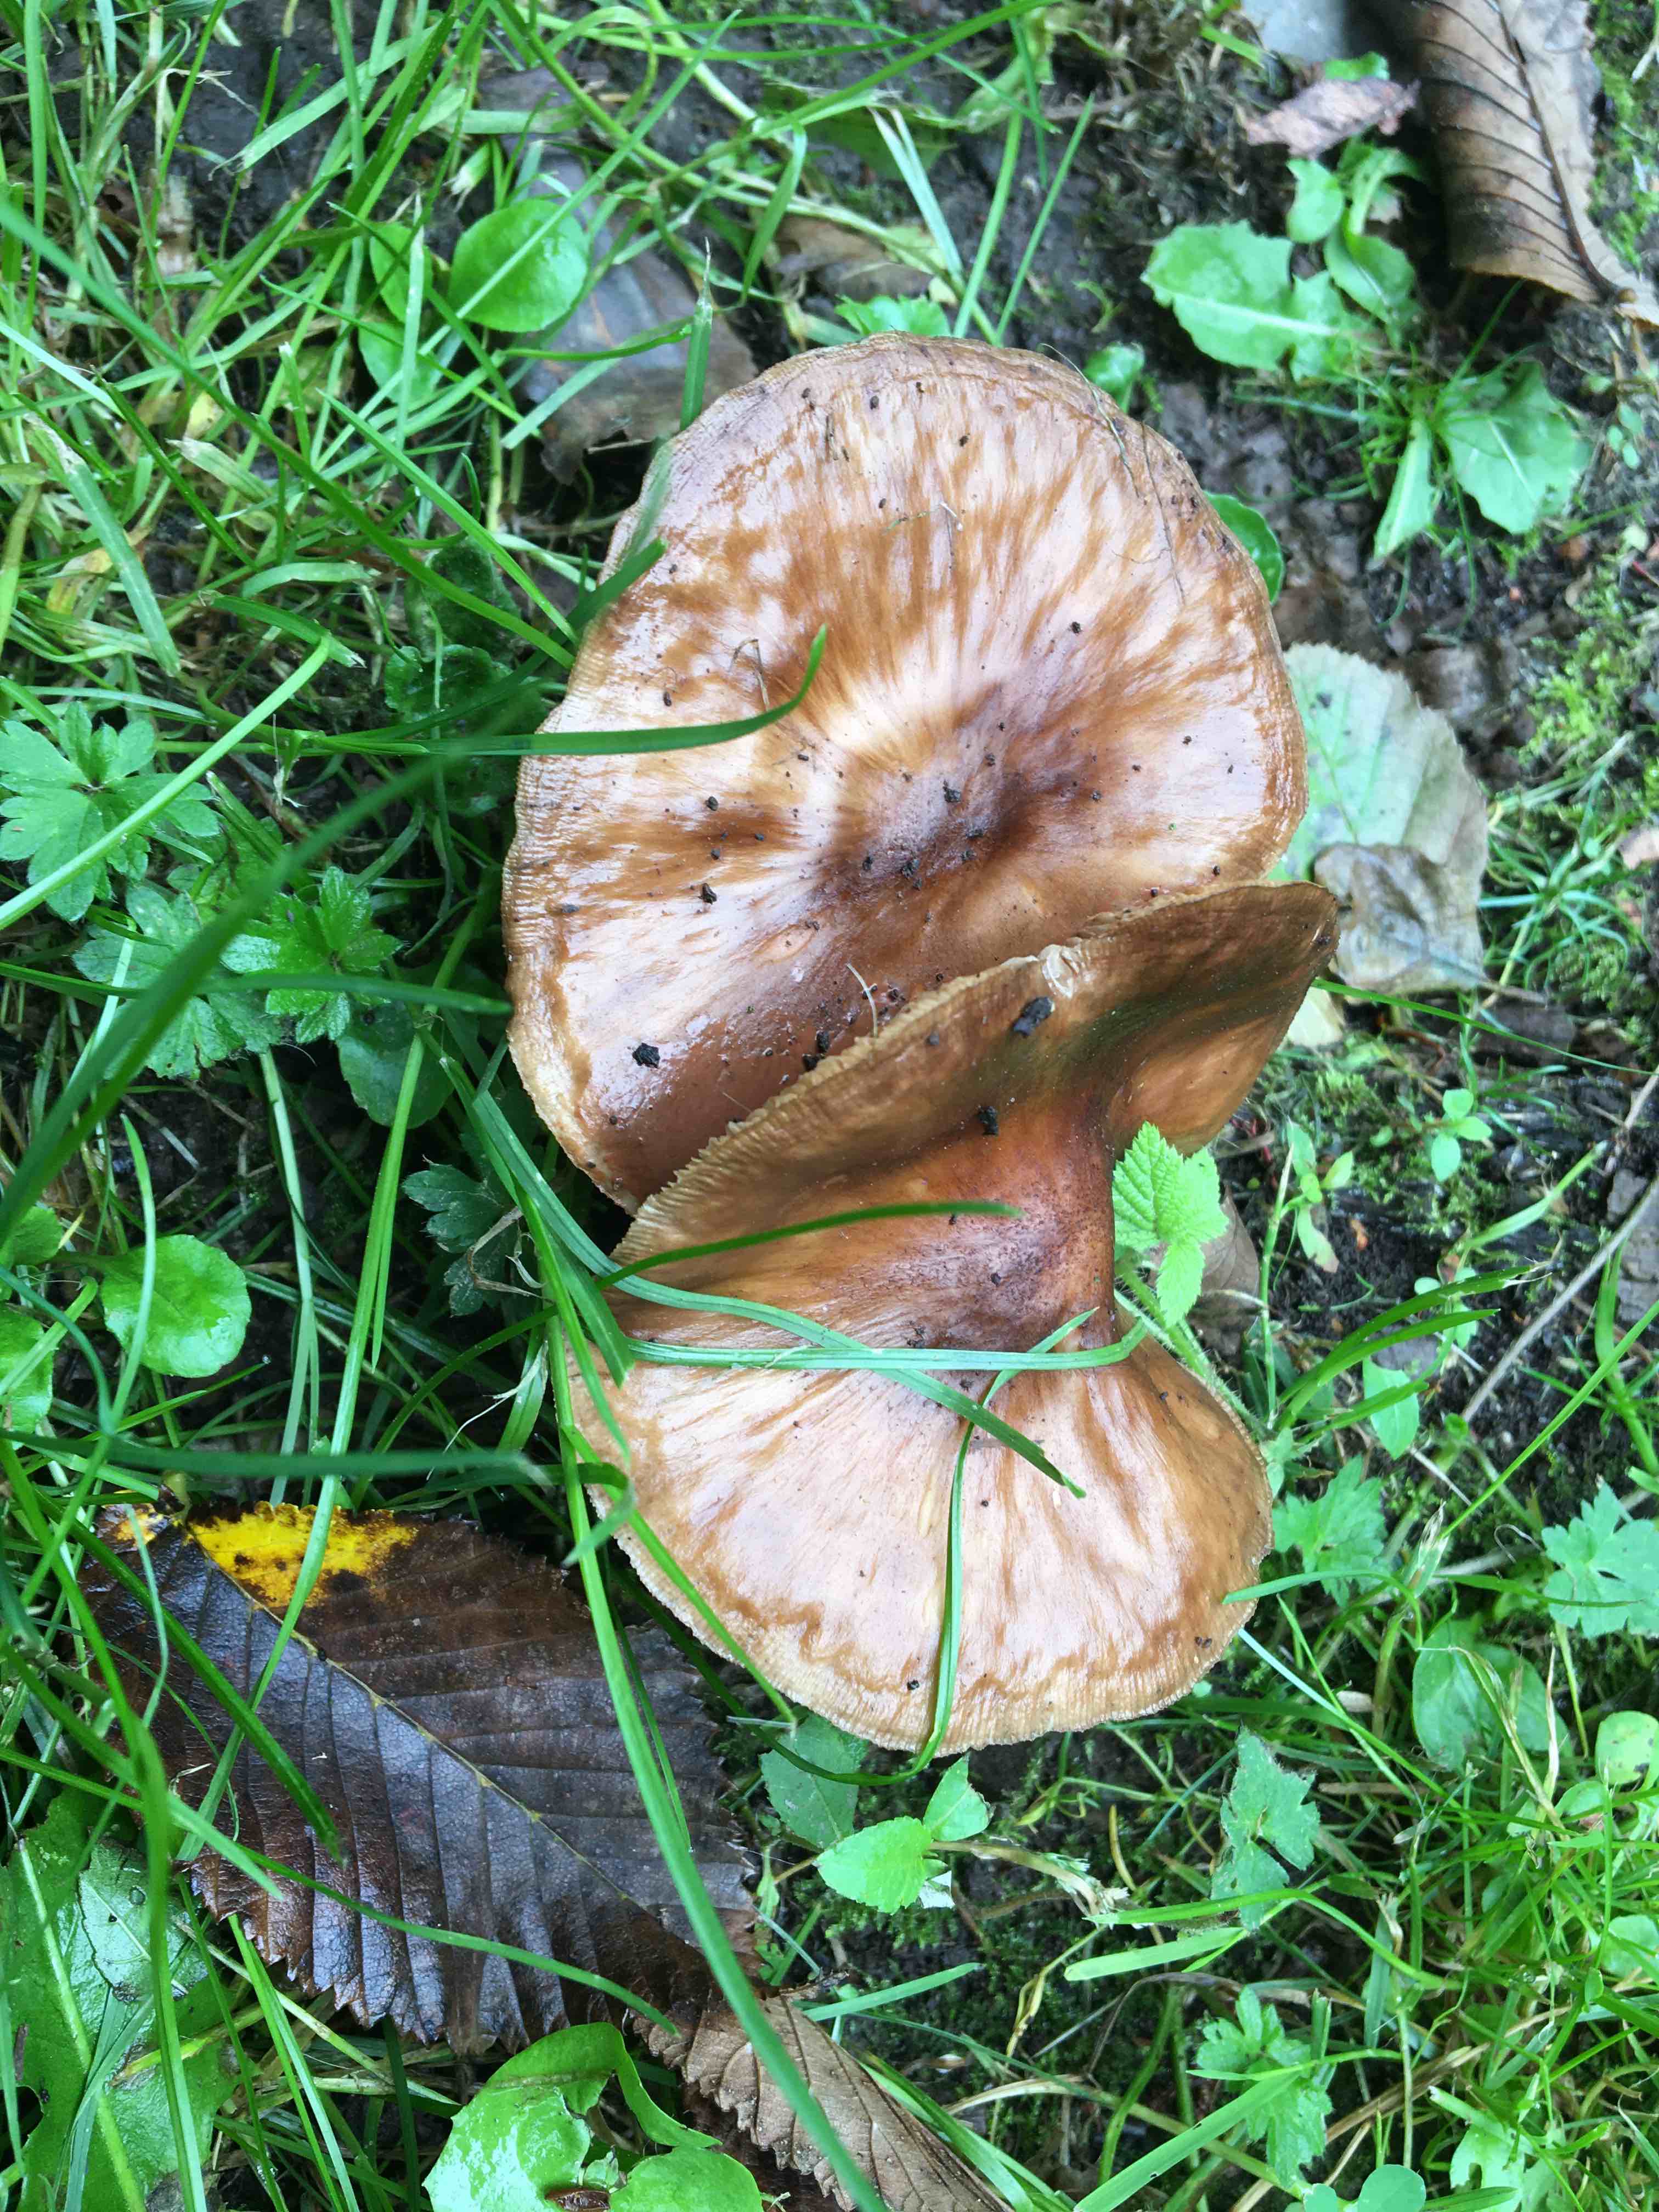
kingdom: Fungi
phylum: Basidiomycota
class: Agaricomycetes
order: Agaricales
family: Pluteaceae
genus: Pluteus
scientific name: Pluteus cervinus
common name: sodfarvet skærmhat
